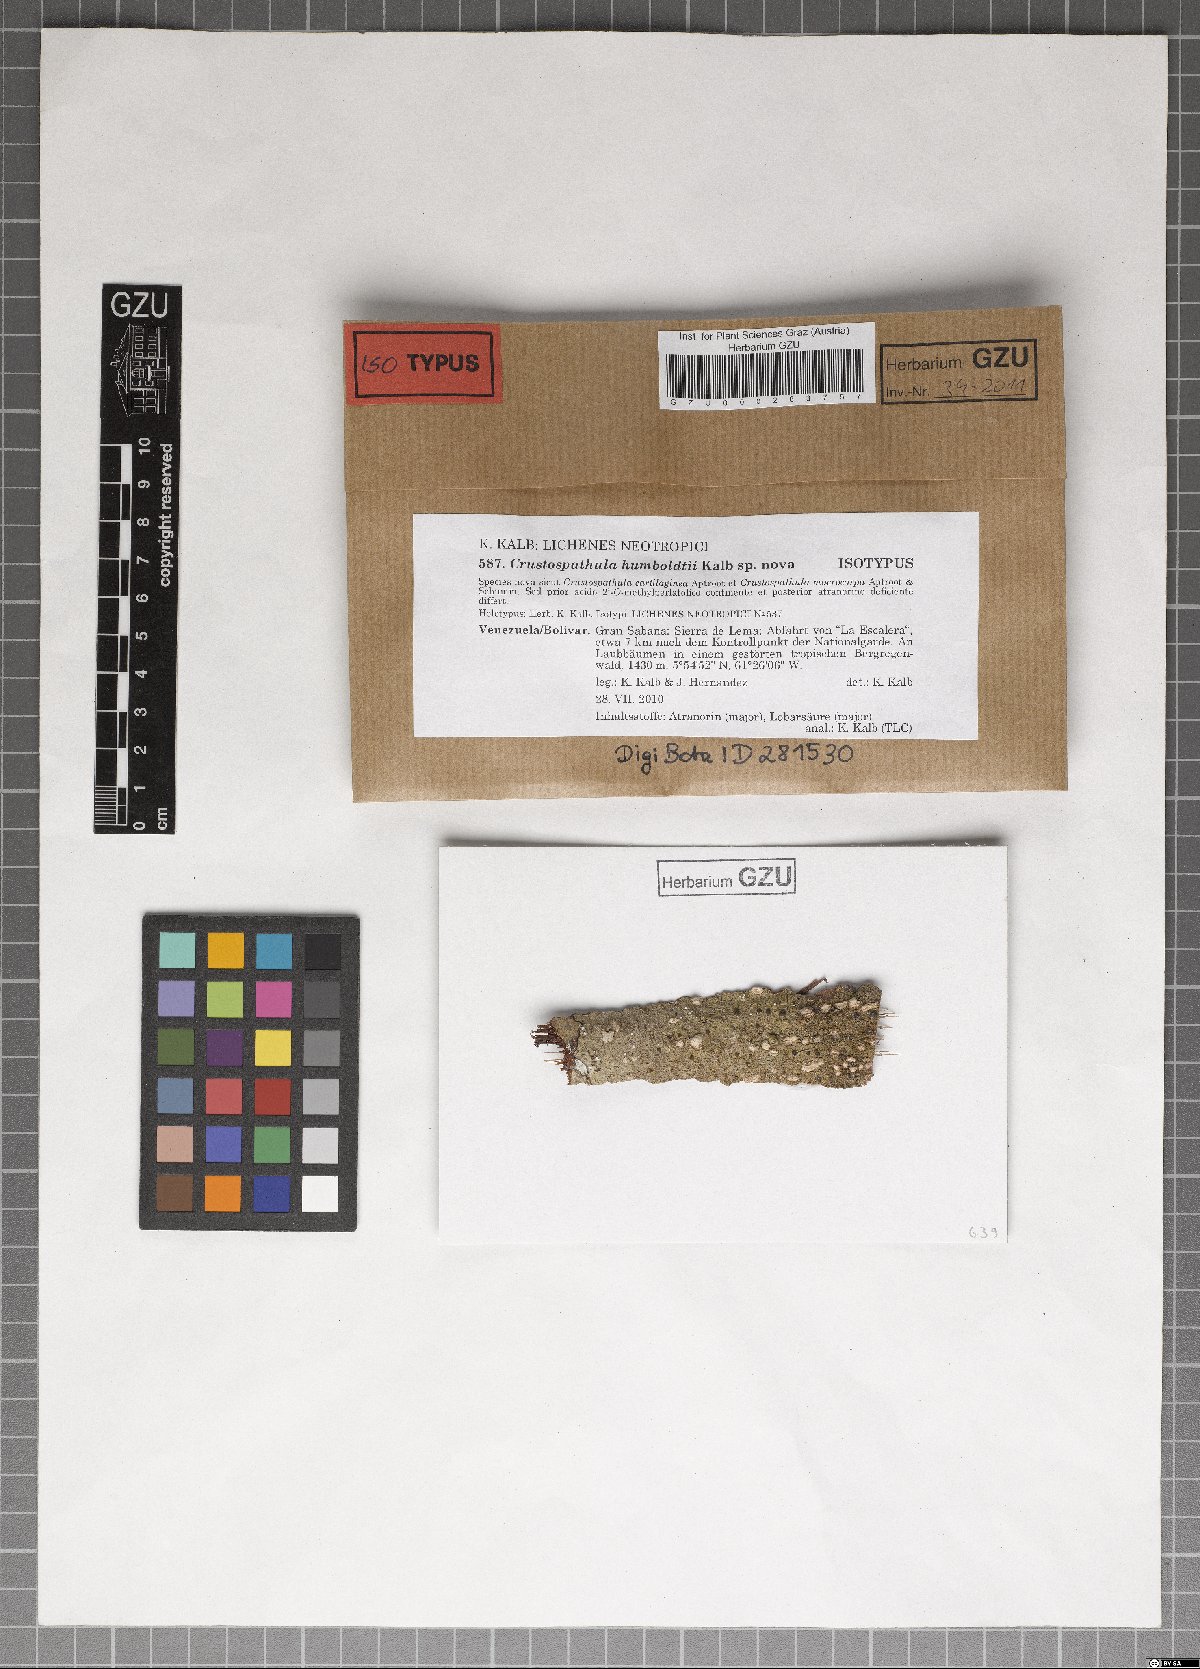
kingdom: Fungi
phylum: Ascomycota
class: Lecanoromycetes
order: Lecanorales
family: Ramalinaceae
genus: Crustospathula
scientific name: Crustospathula humboldtii
